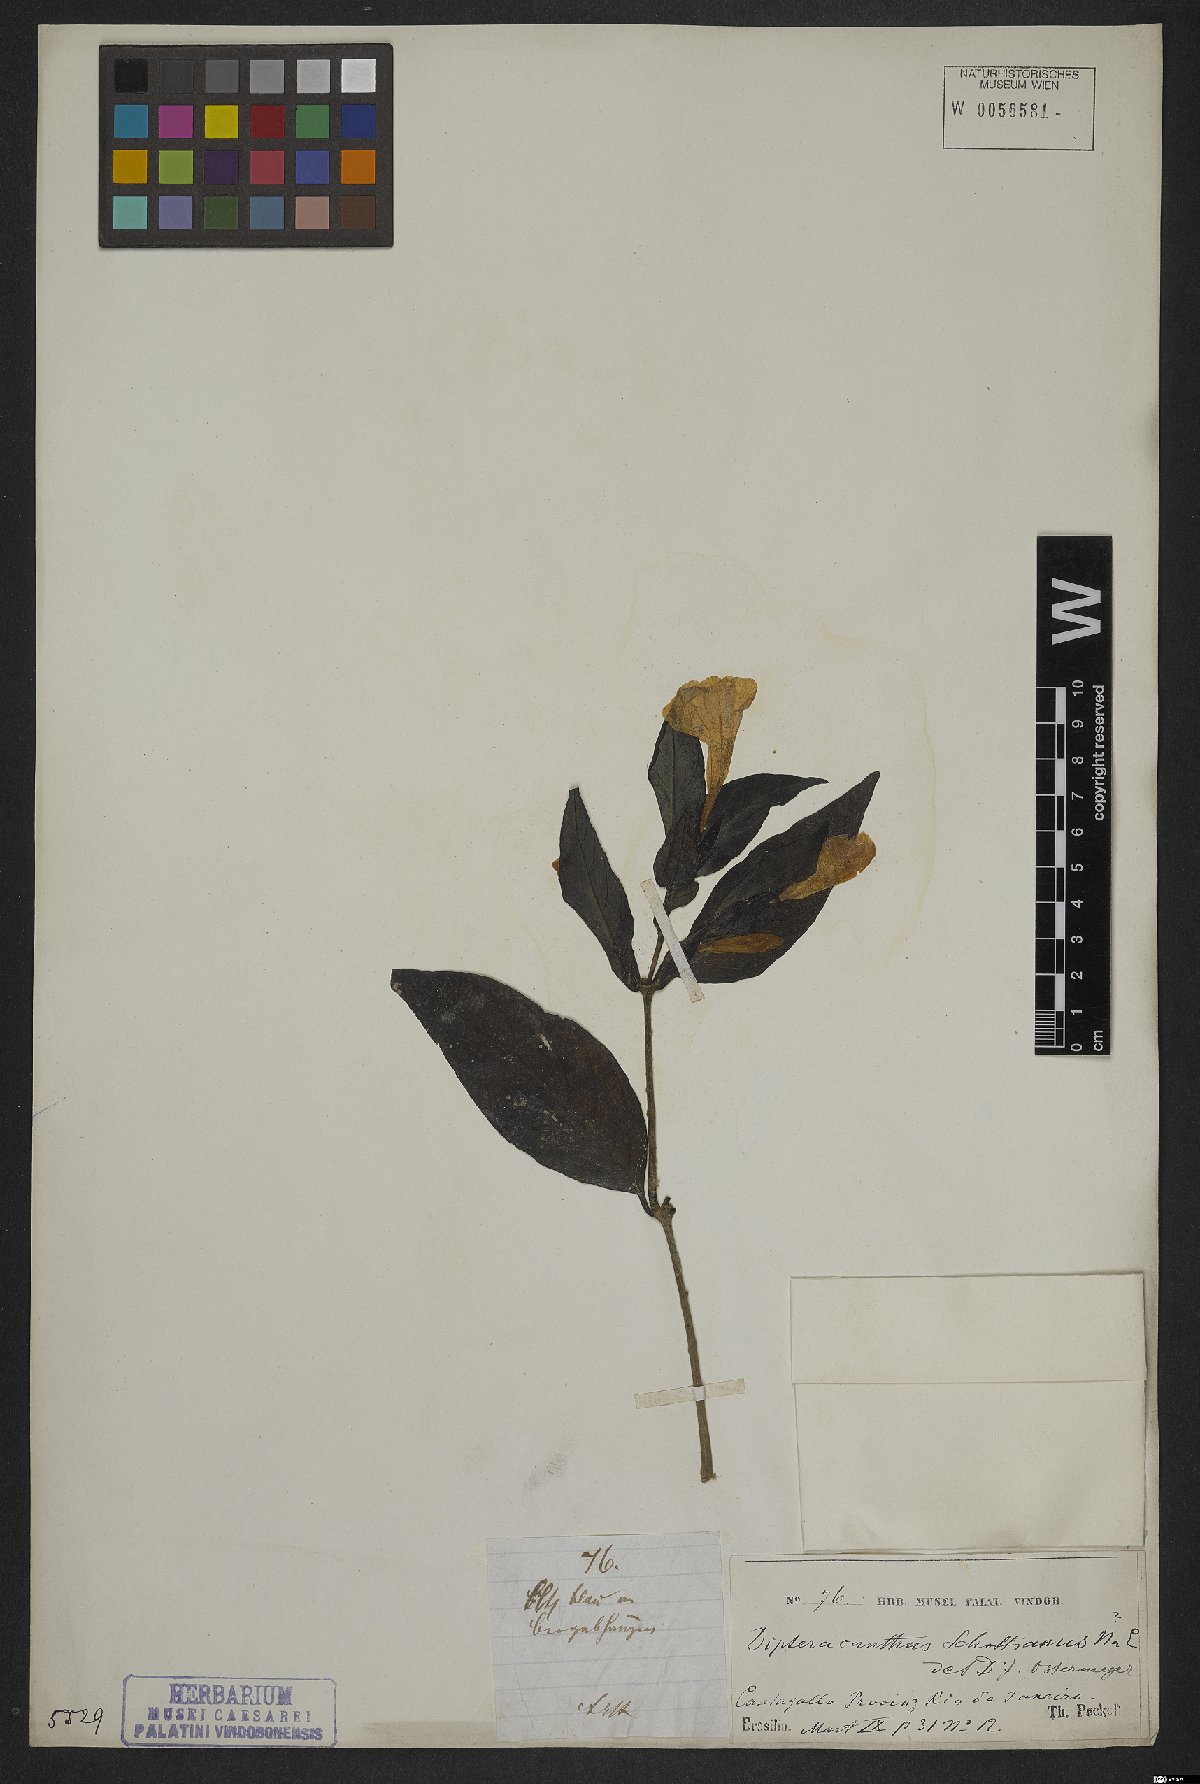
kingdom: Plantae
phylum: Tracheophyta
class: Magnoliopsida
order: Lamiales
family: Acanthaceae
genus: Ruellia
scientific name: Ruellia schottianus
